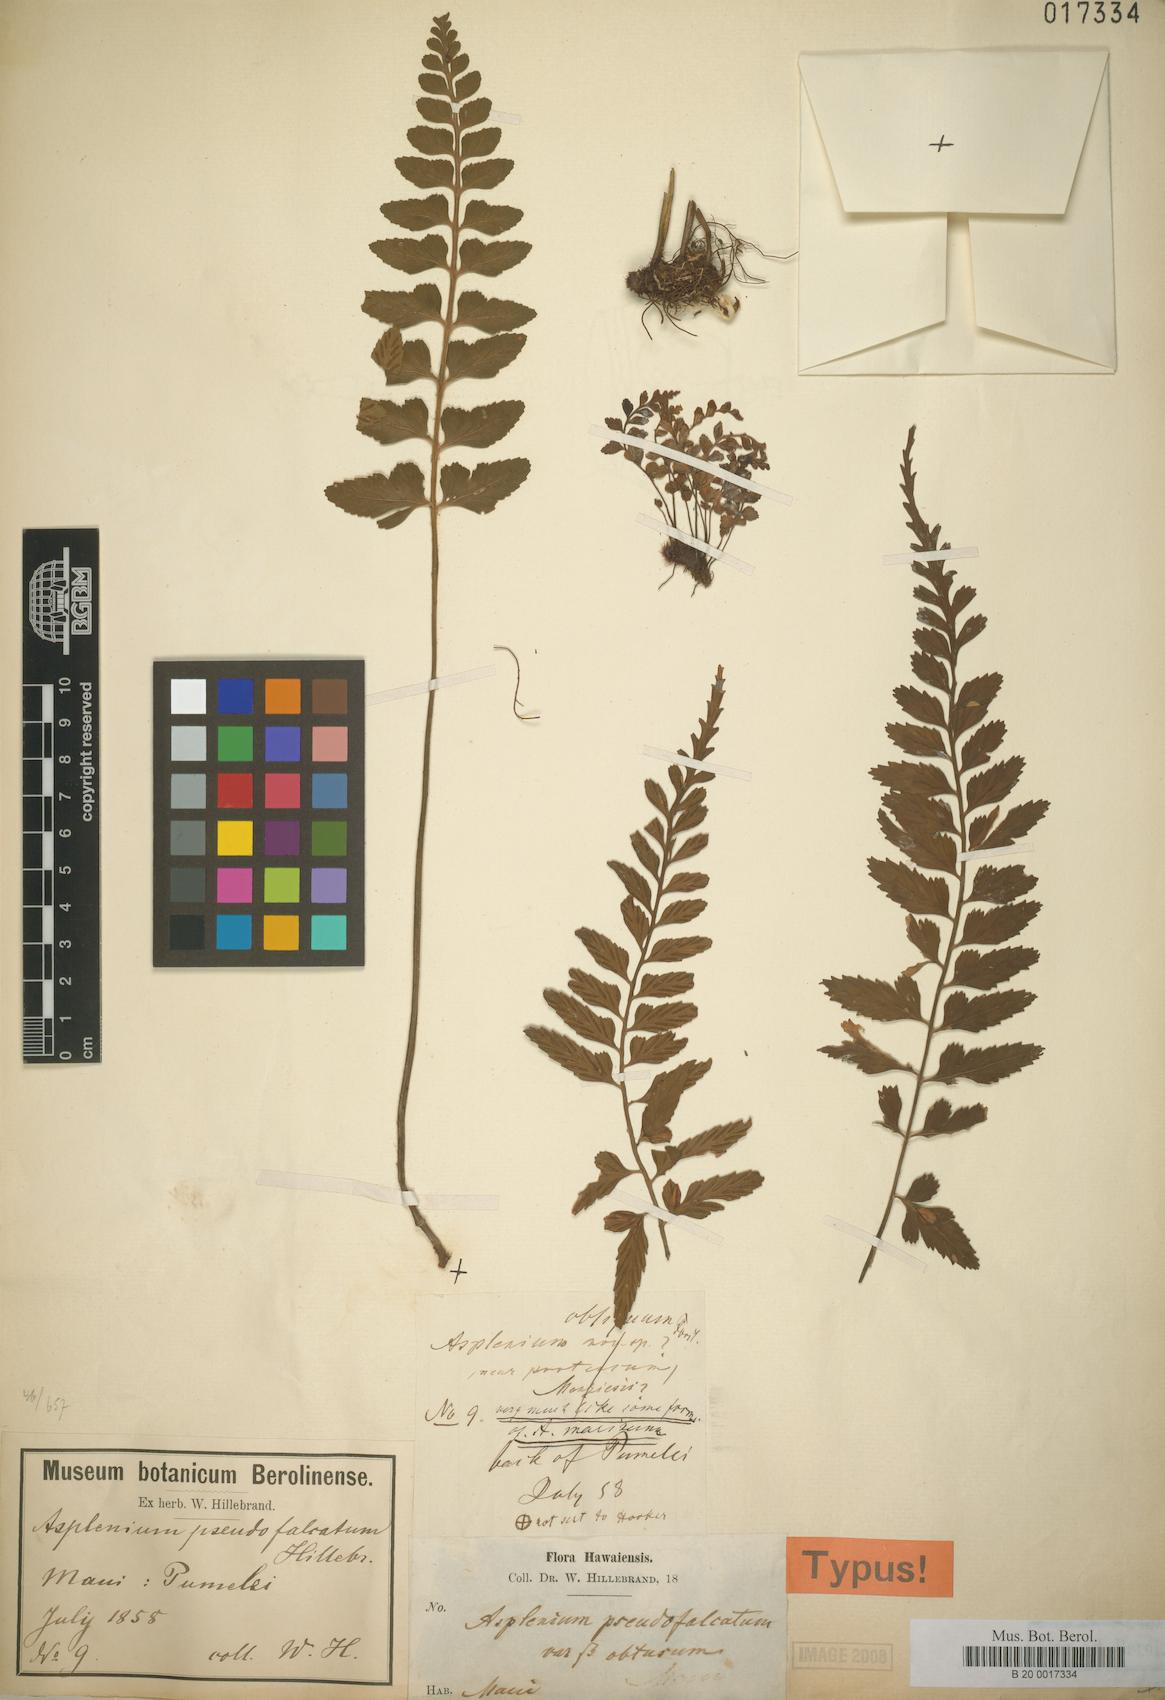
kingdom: Plantae
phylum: Tracheophyta
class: Polypodiopsida
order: Polypodiales
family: Aspleniaceae
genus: Asplenium
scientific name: Asplenium lobulatum
